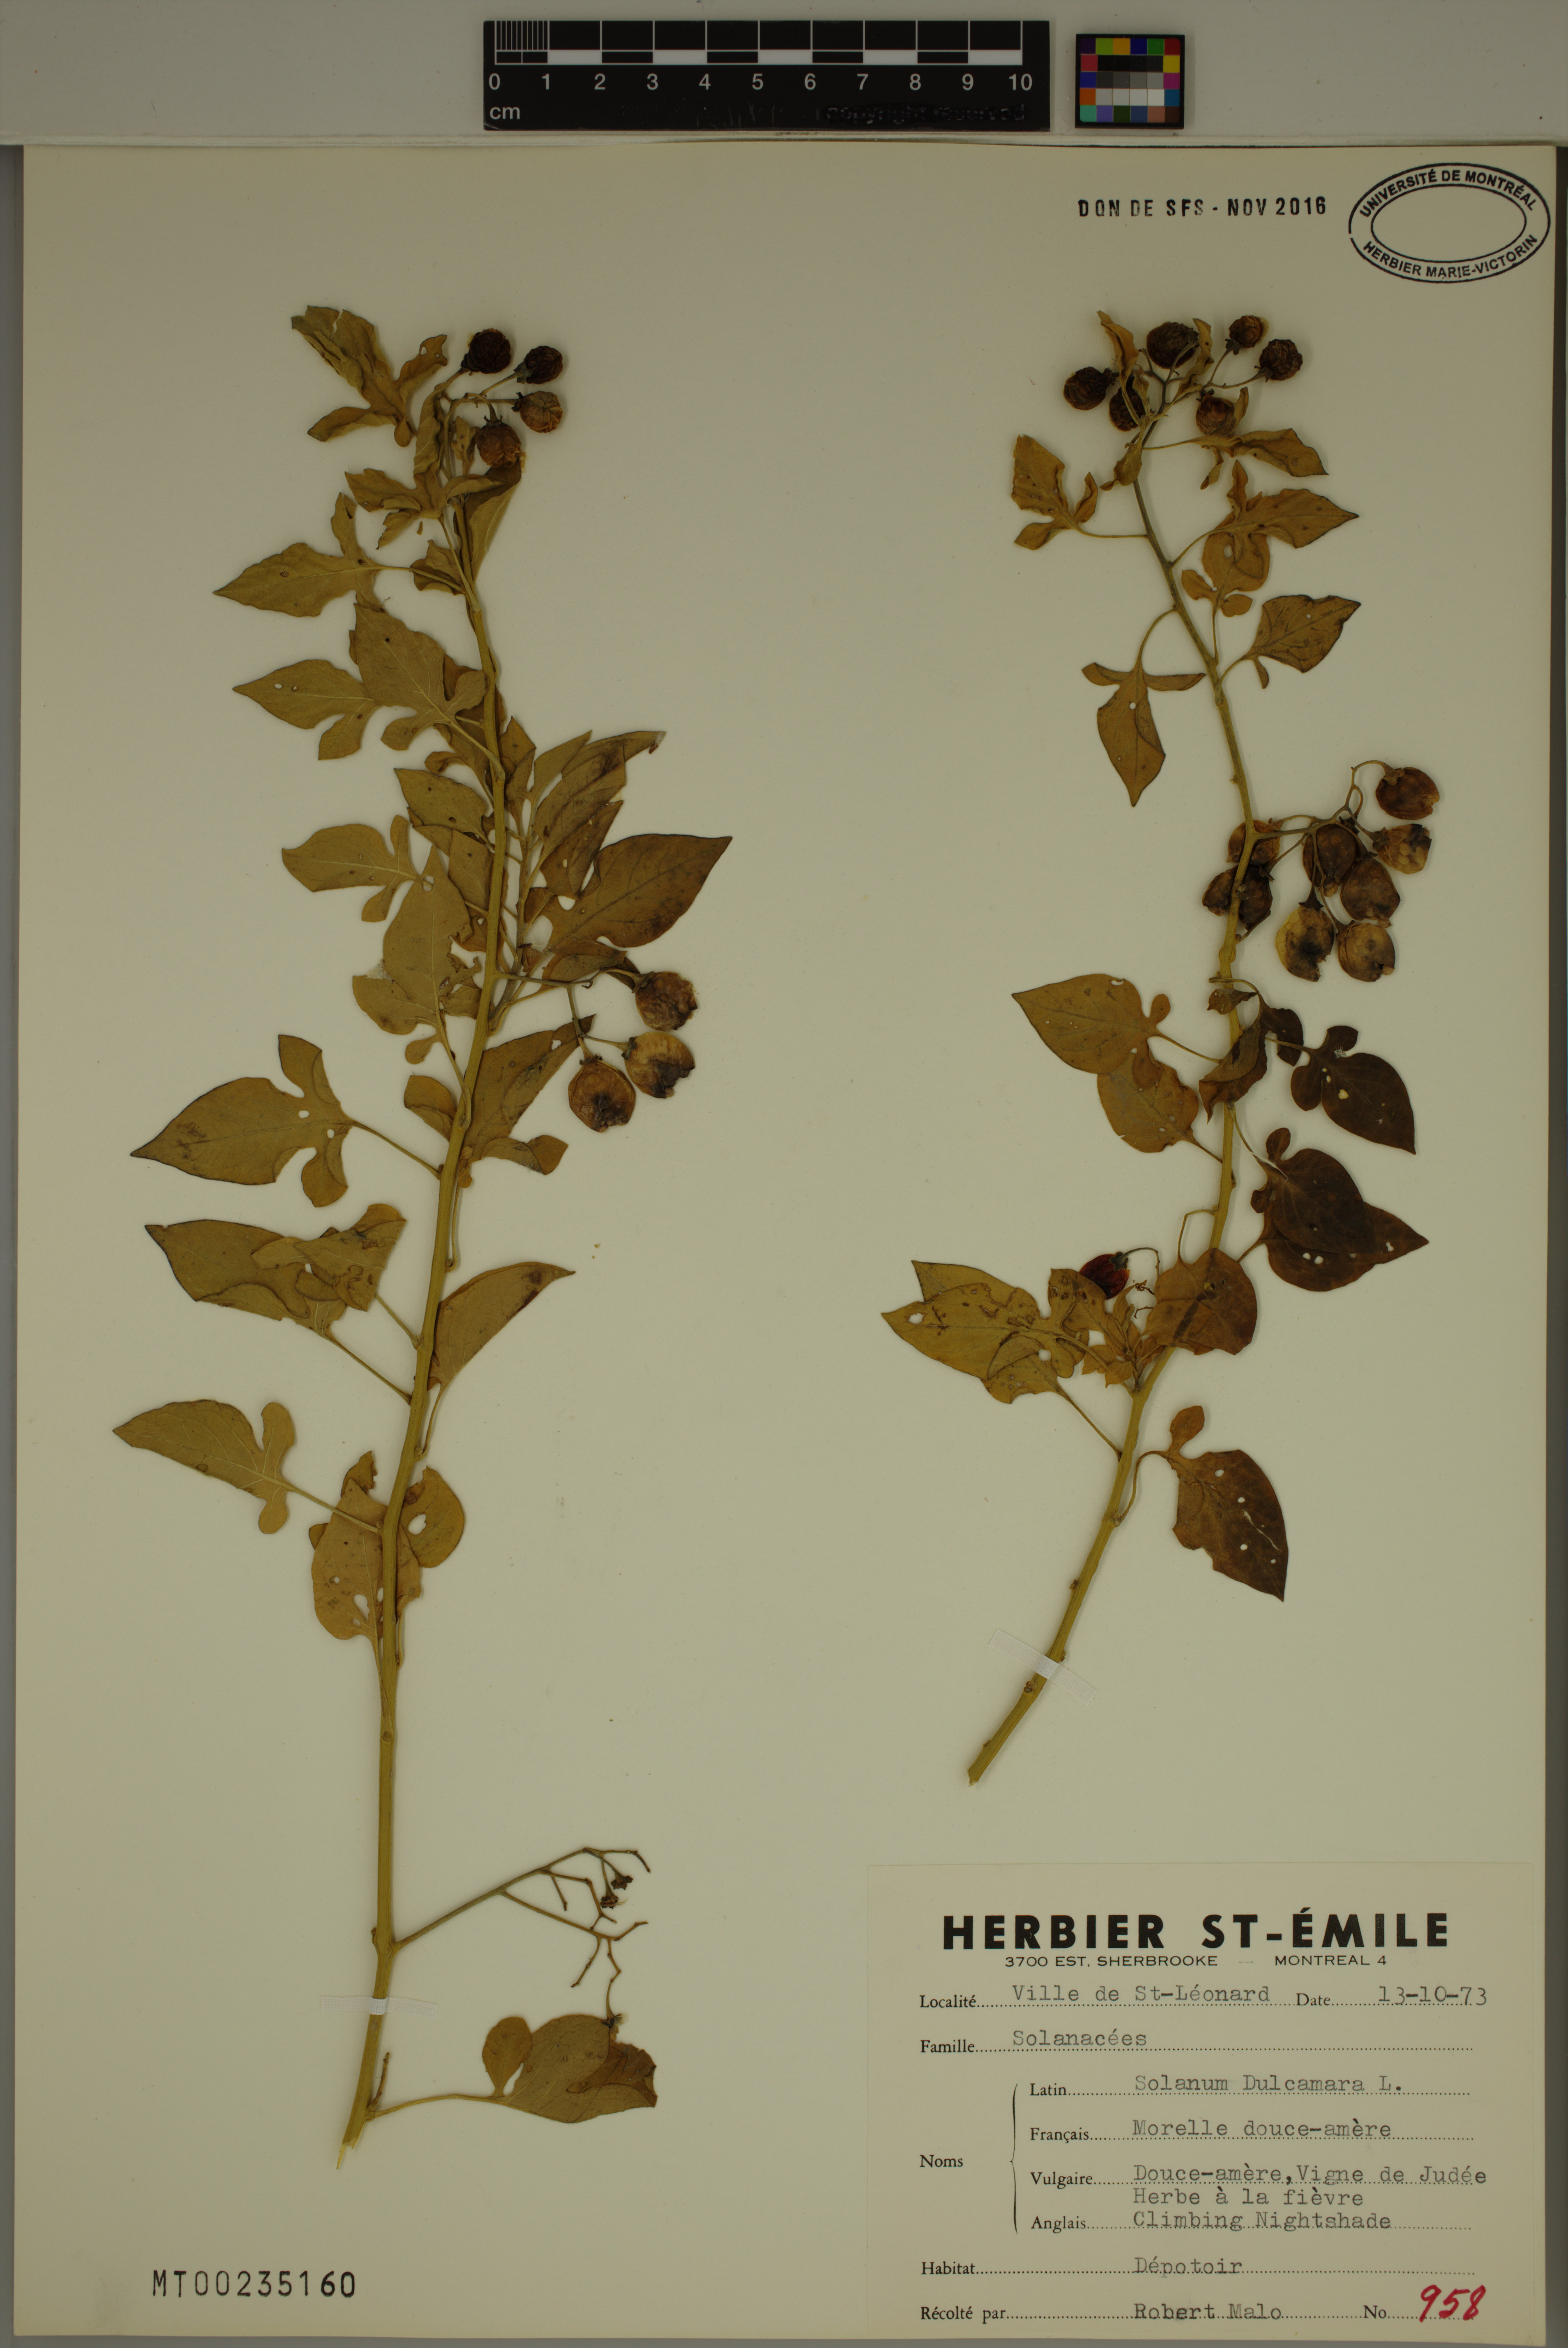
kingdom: Plantae
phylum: Tracheophyta
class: Magnoliopsida
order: Solanales
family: Solanaceae
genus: Solanum
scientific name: Solanum dulcamara
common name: Climbing nightshade
